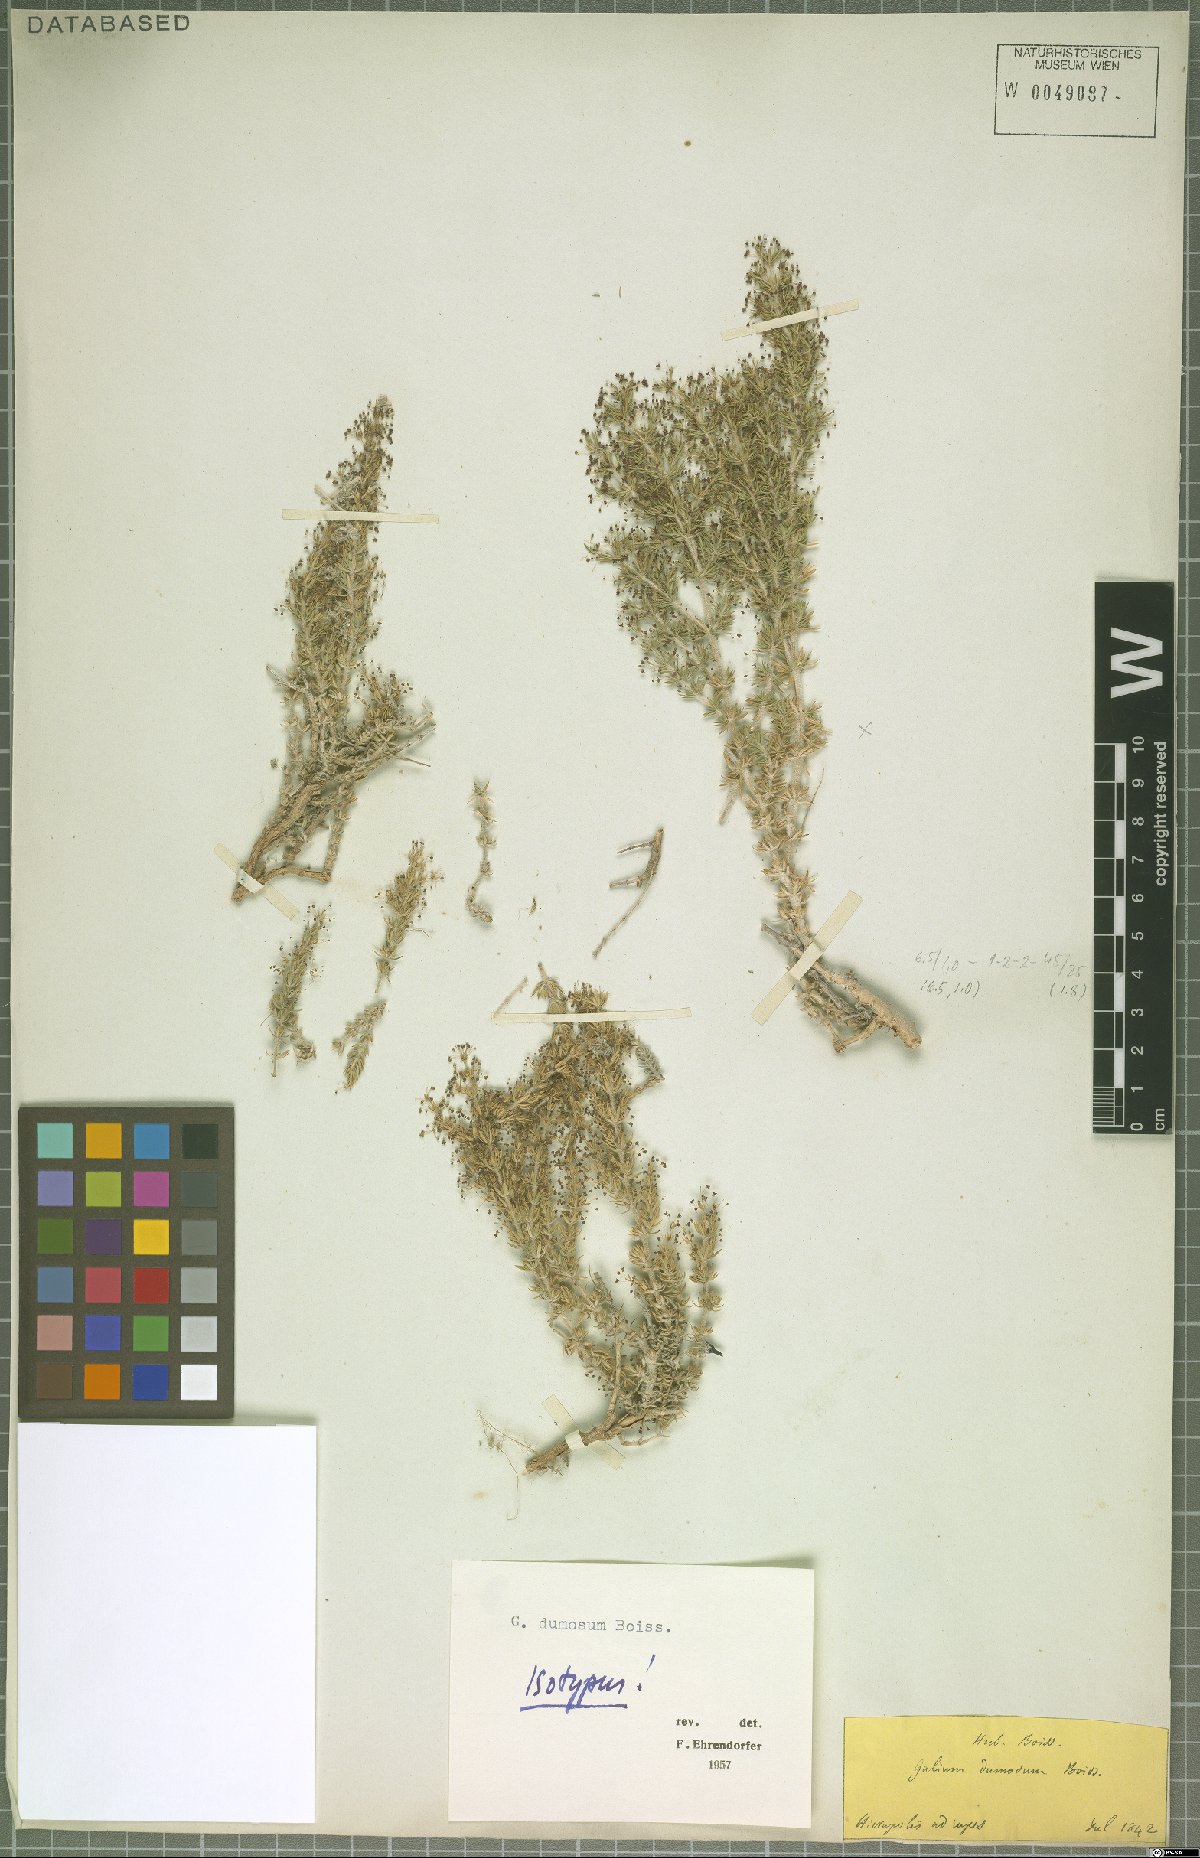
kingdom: Plantae
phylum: Tracheophyta
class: Magnoliopsida
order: Gentianales
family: Rubiaceae
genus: Galium
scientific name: Galium dumosum
